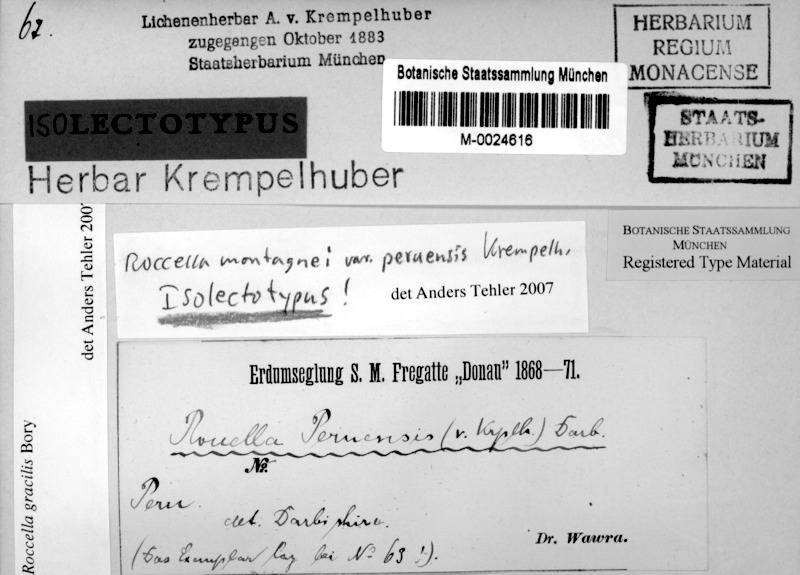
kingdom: Fungi
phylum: Ascomycota
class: Arthoniomycetes
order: Arthoniales
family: Roccellaceae
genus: Roccella
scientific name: Roccella gracilis
